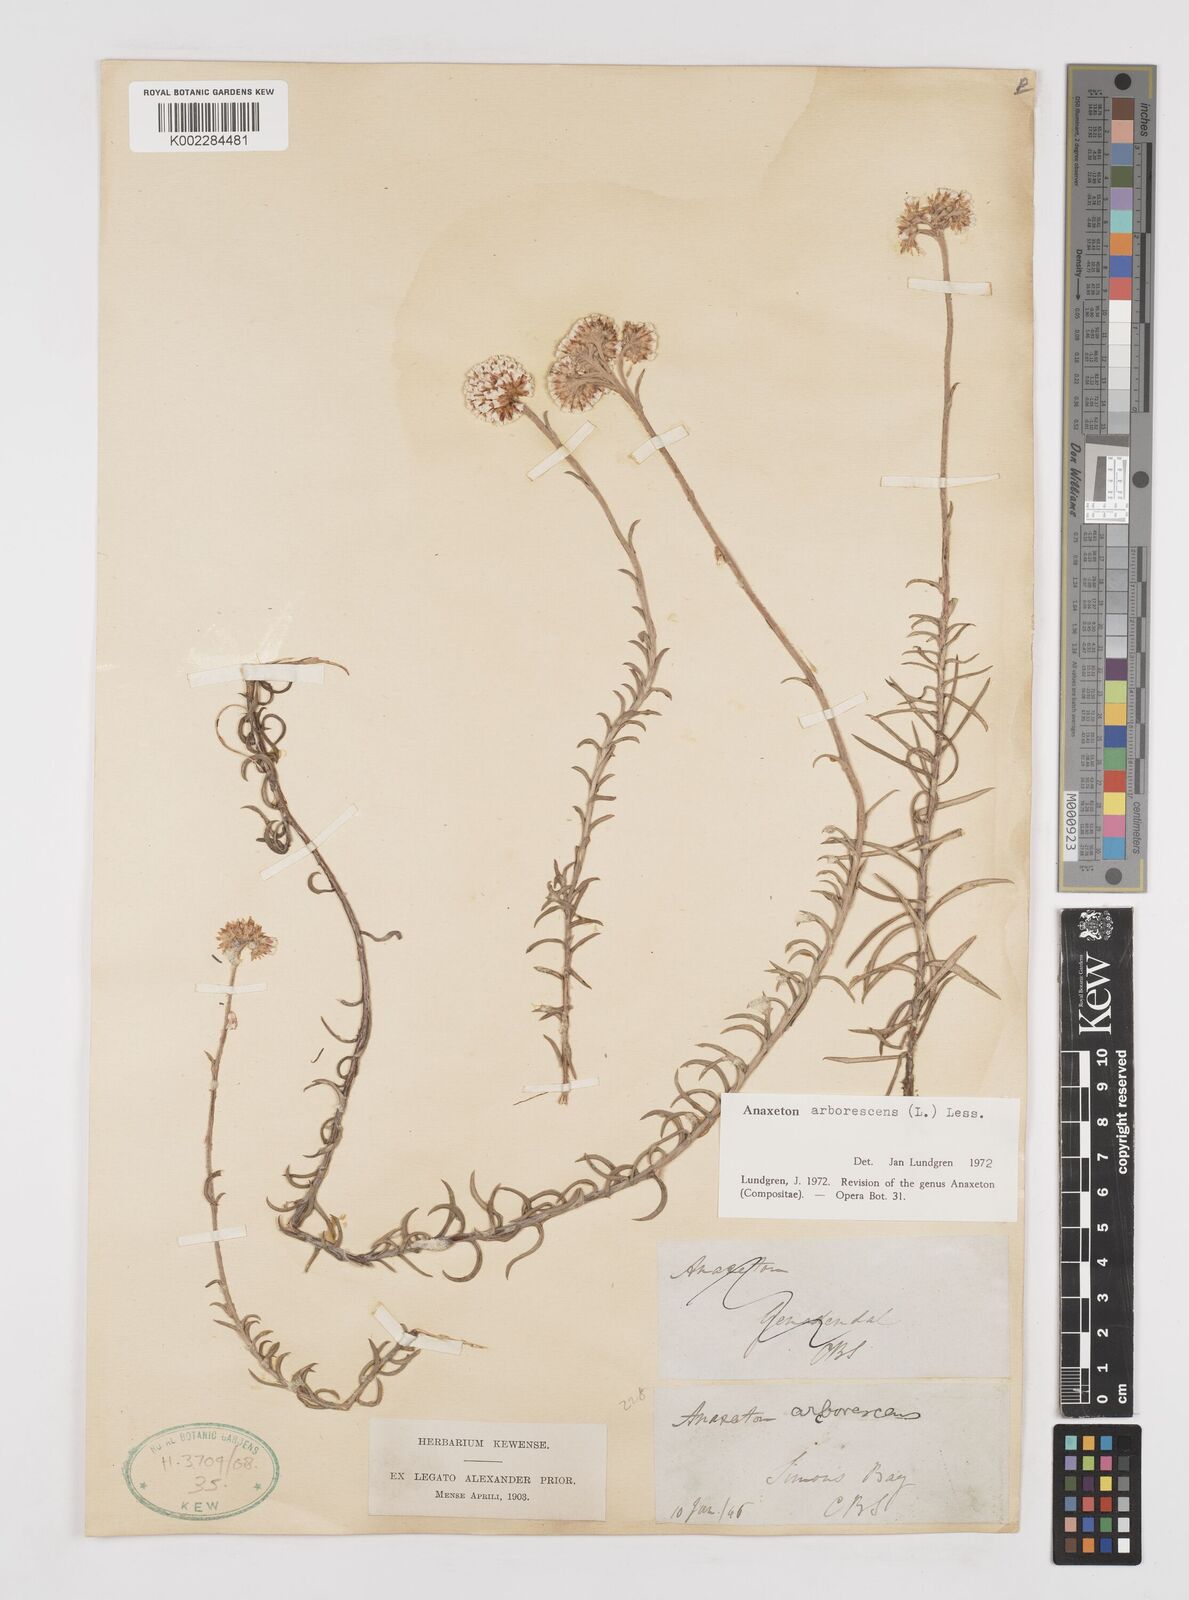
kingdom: Plantae
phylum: Tracheophyta
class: Magnoliopsida
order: Asterales
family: Asteraceae
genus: Anaxeton
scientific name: Anaxeton arborescens
